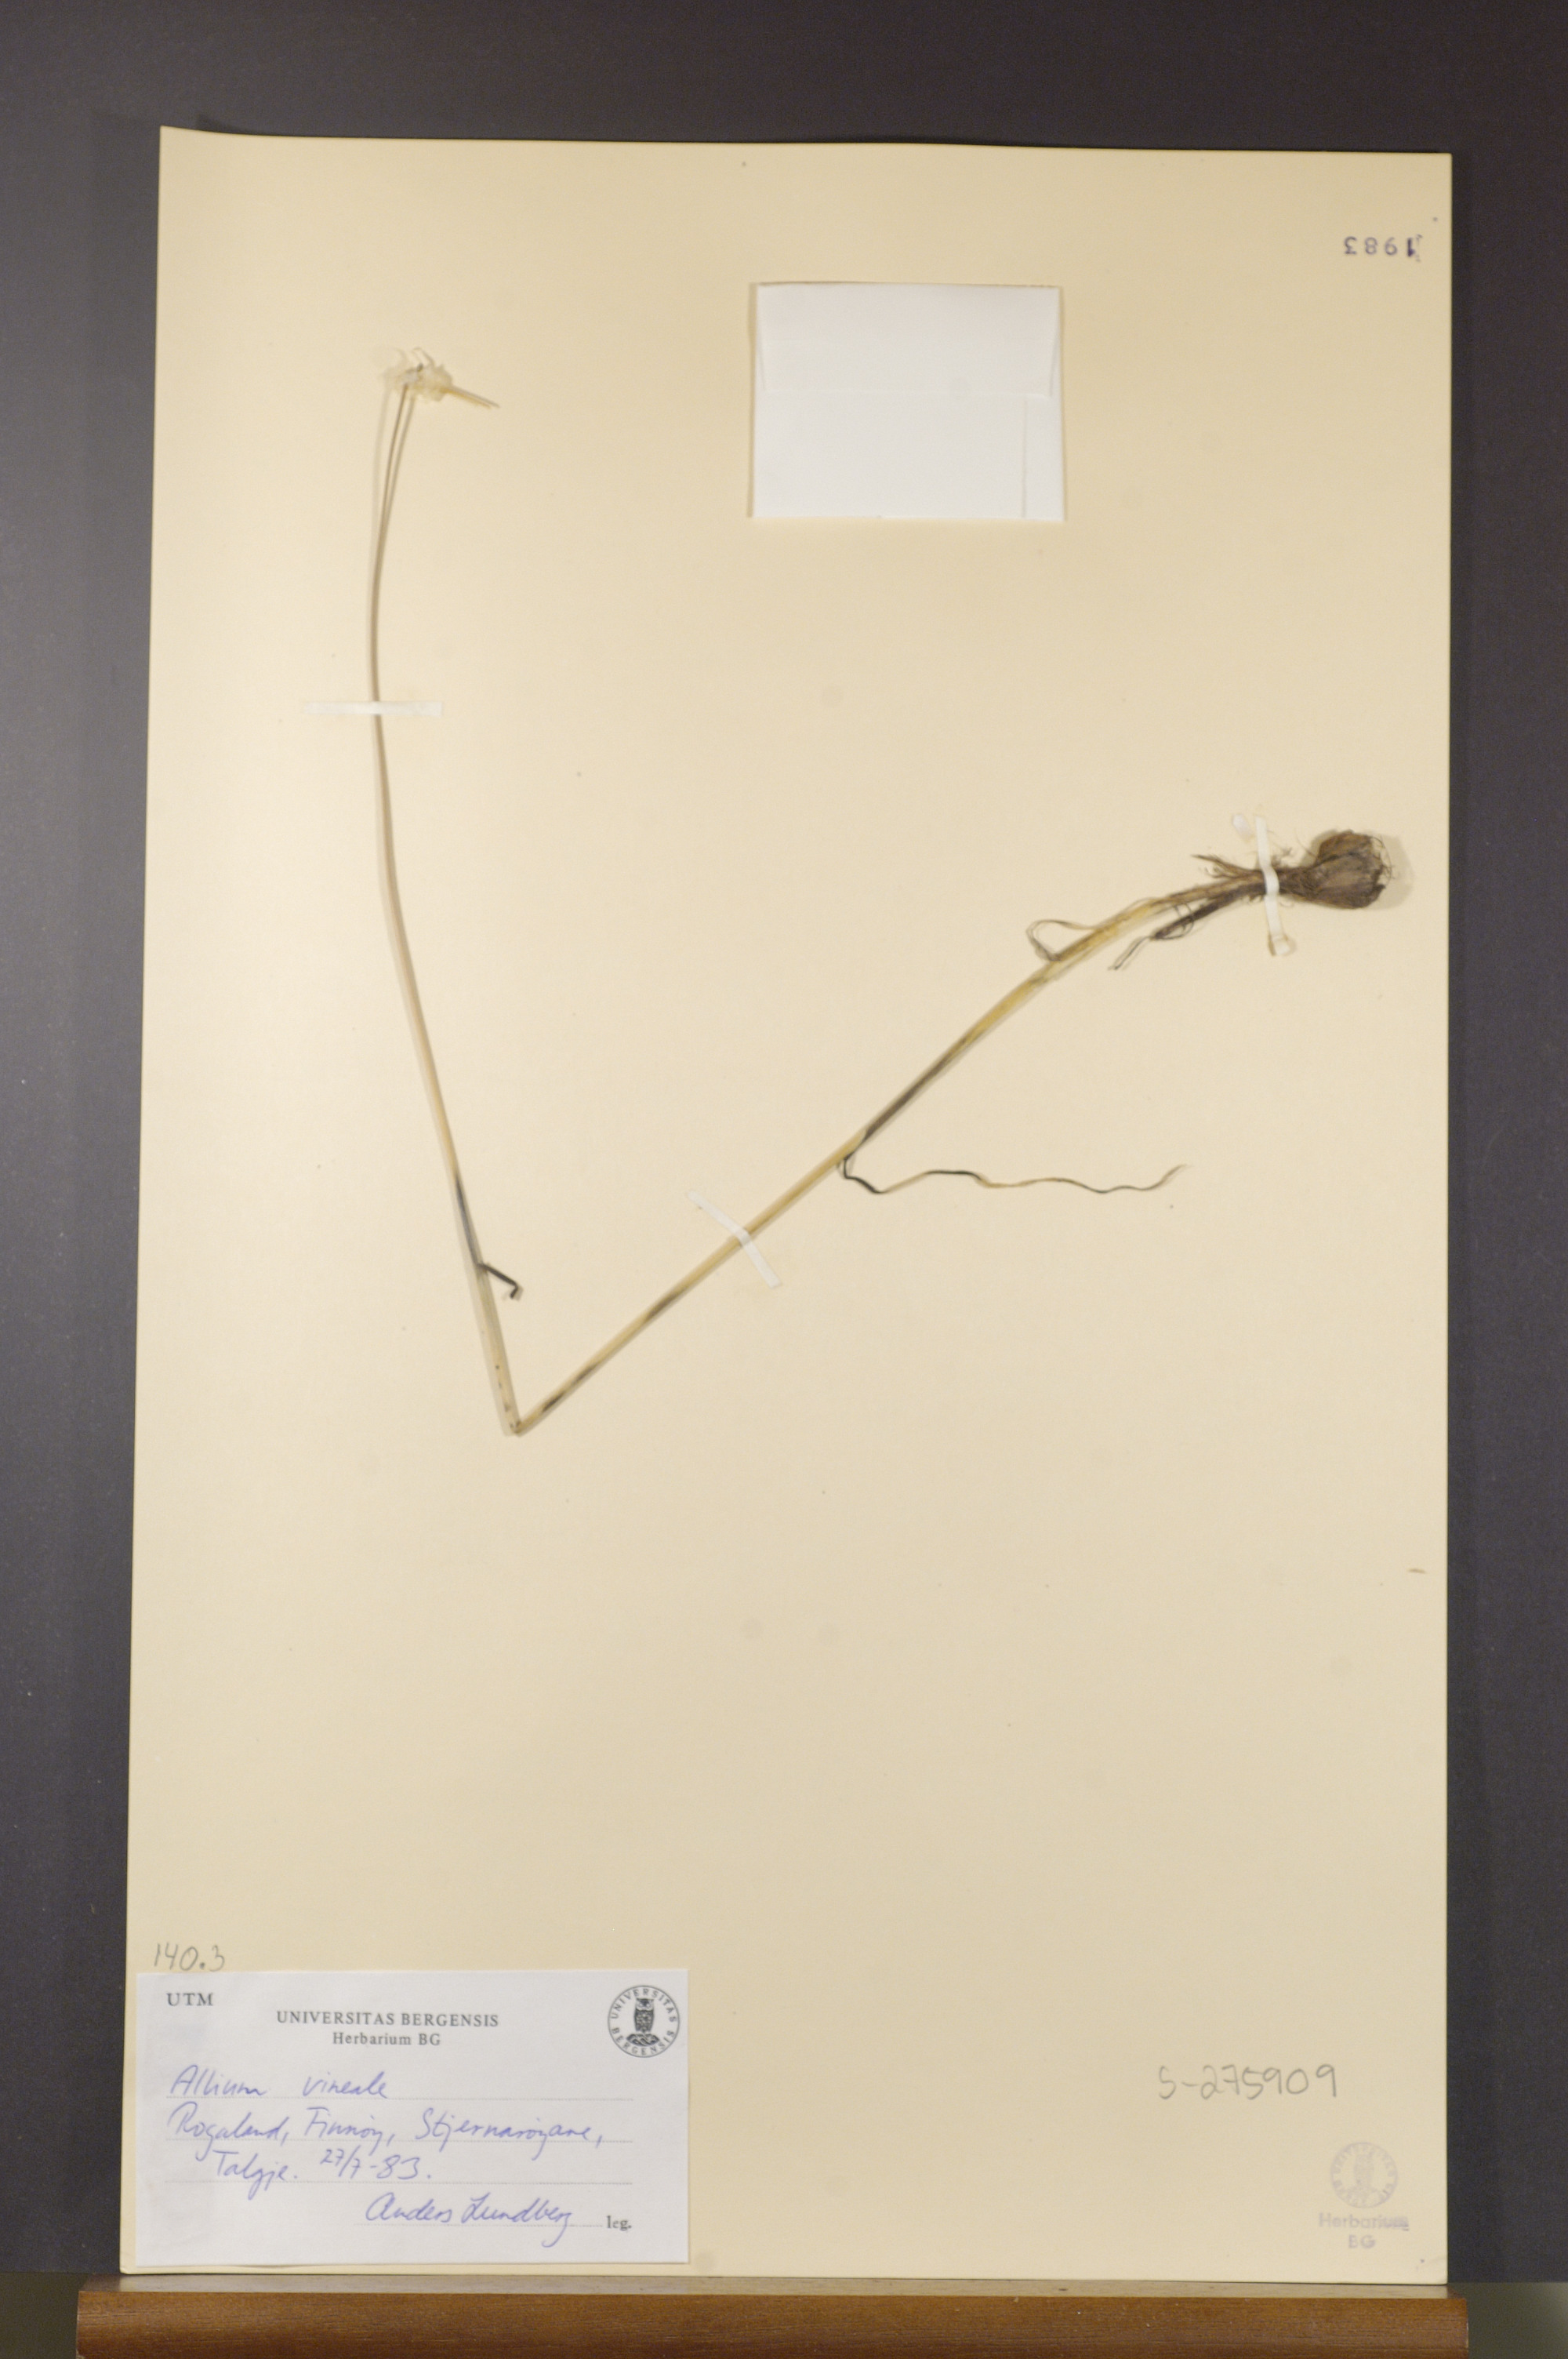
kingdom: Plantae
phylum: Tracheophyta
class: Liliopsida
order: Asparagales
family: Amaryllidaceae
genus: Allium
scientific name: Allium vineale
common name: Crow garlic
